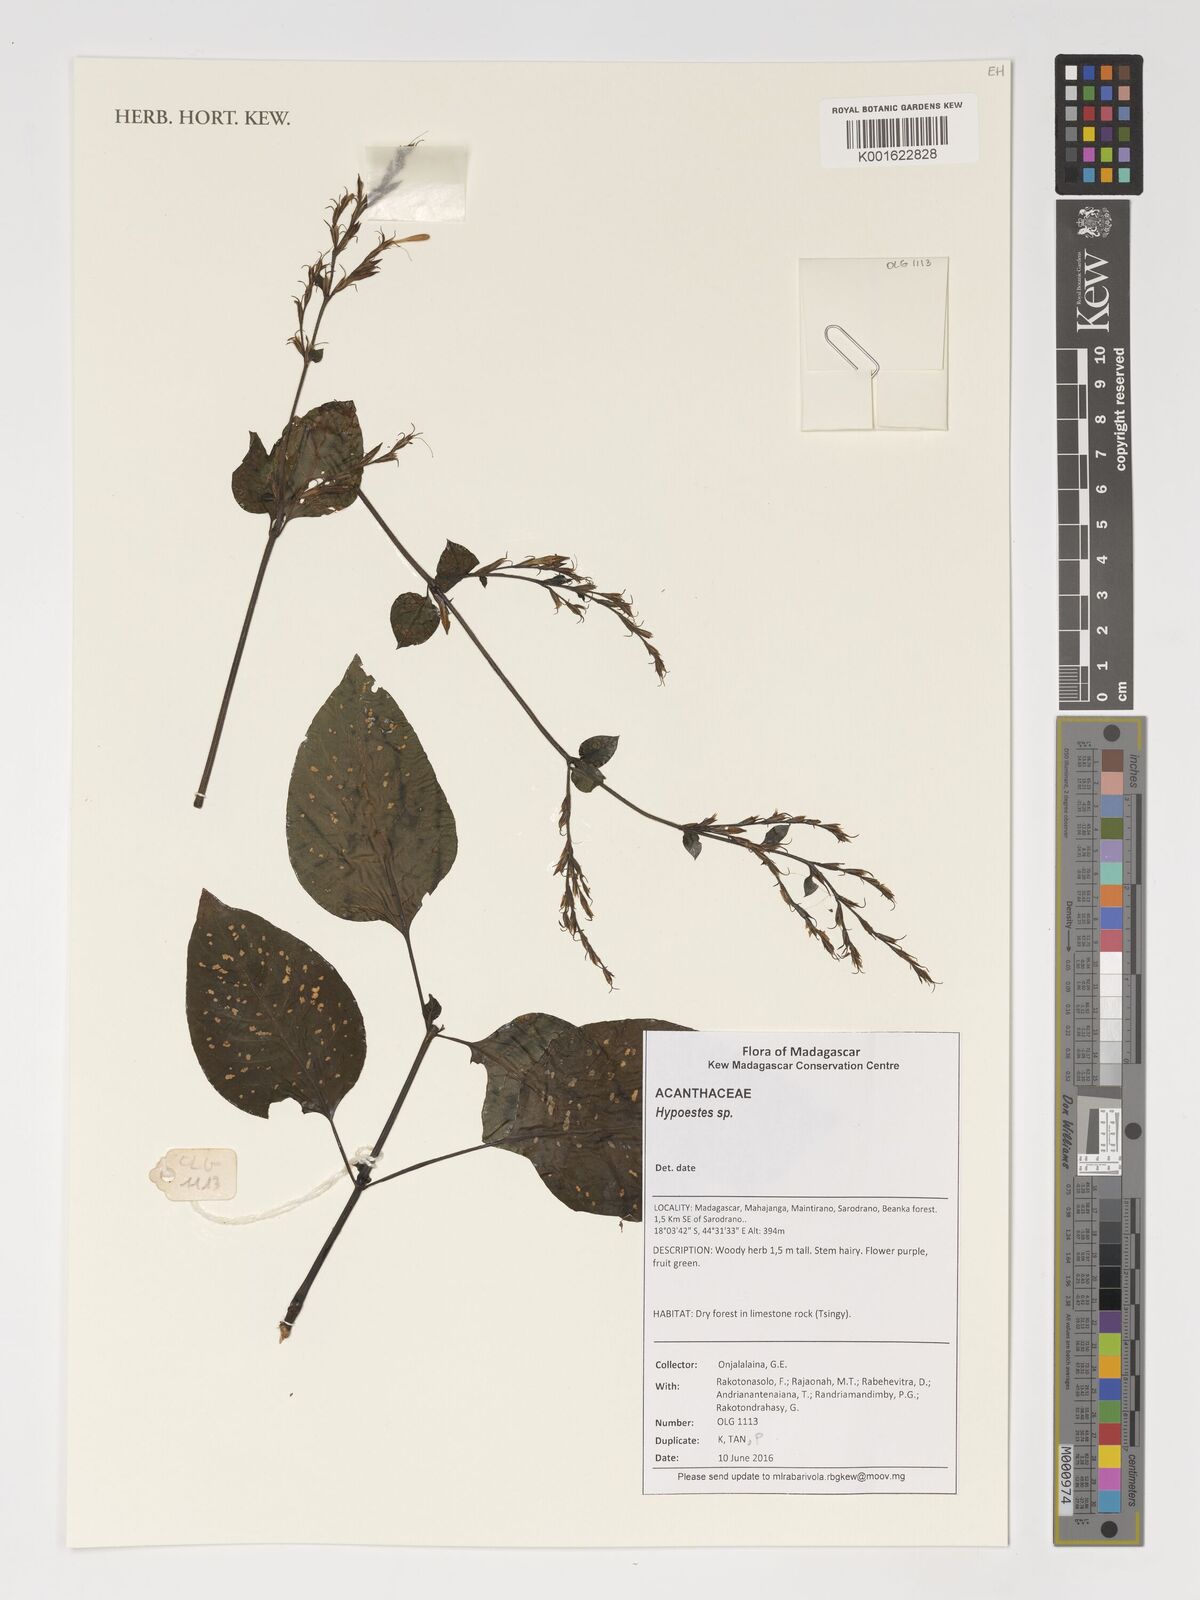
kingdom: Plantae
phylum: Tracheophyta
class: Magnoliopsida
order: Lamiales
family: Acanthaceae
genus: Hypoestes
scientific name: Hypoestes
